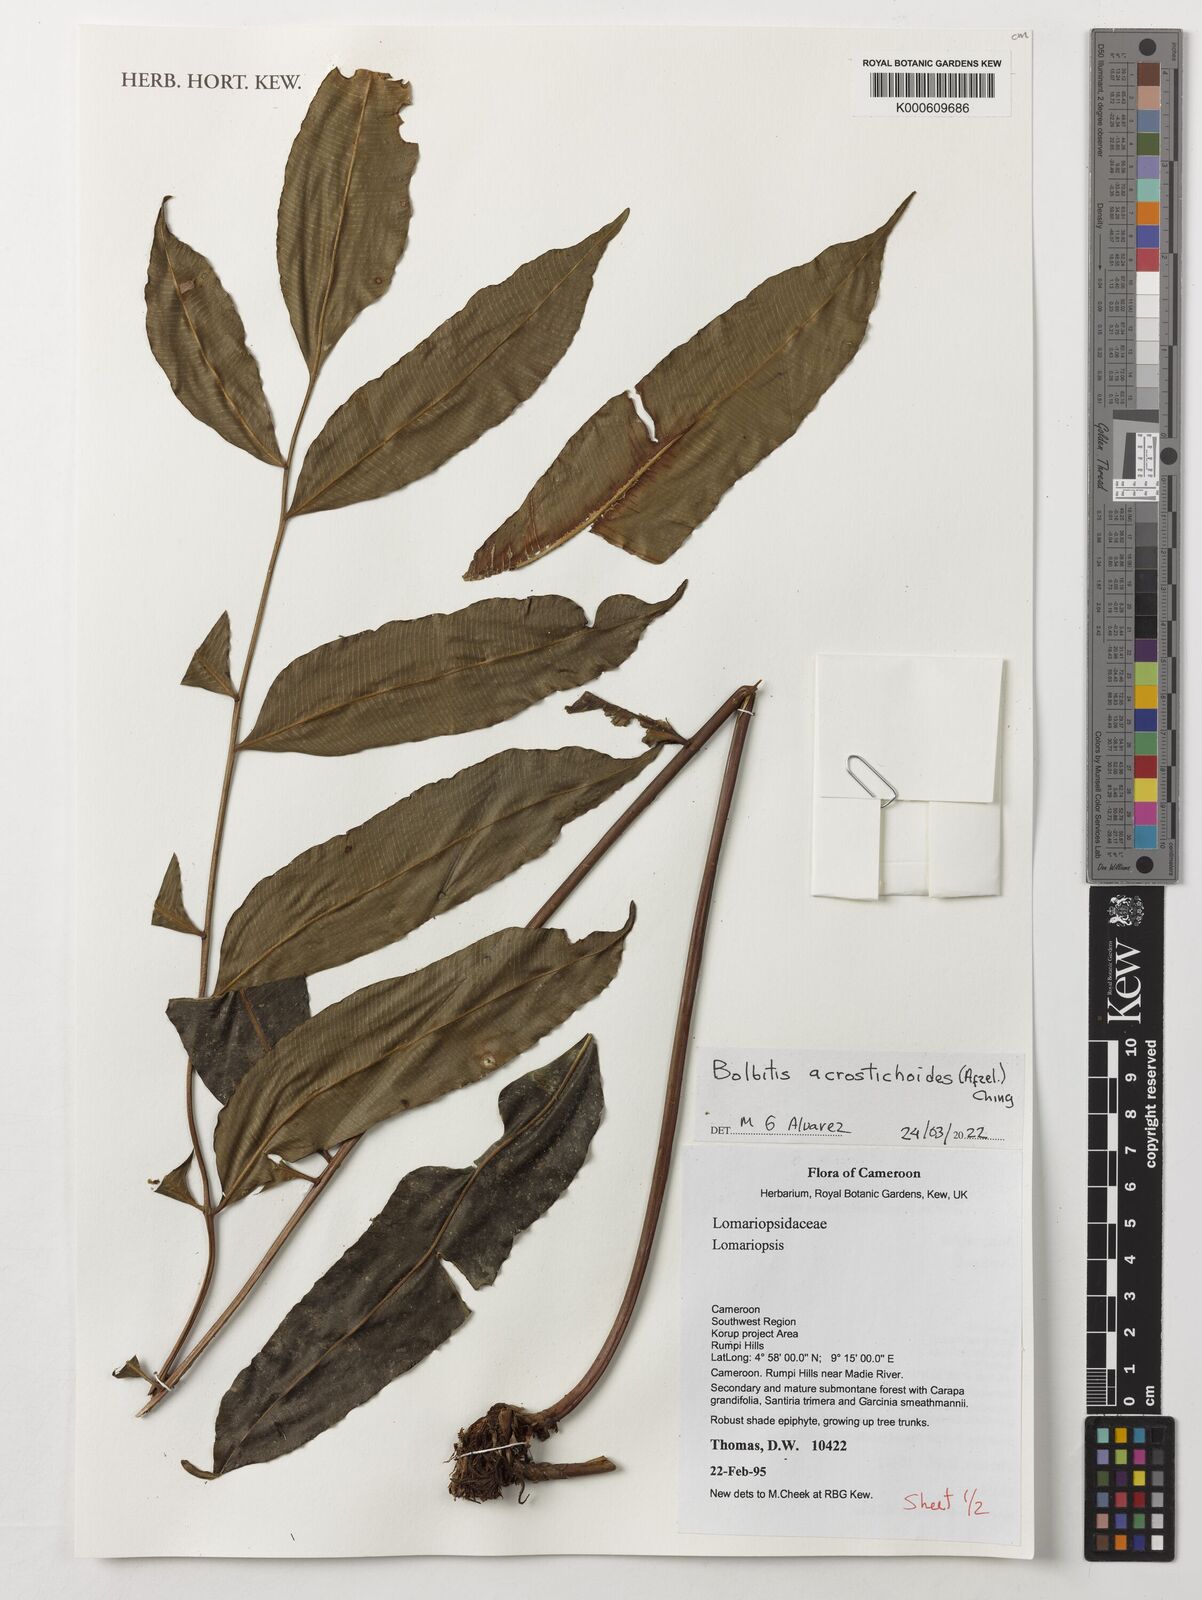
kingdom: Plantae
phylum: Tracheophyta
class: Polypodiopsida
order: Polypodiales
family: Dryopteridaceae
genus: Bolbitis
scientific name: Bolbitis acrostichoides
